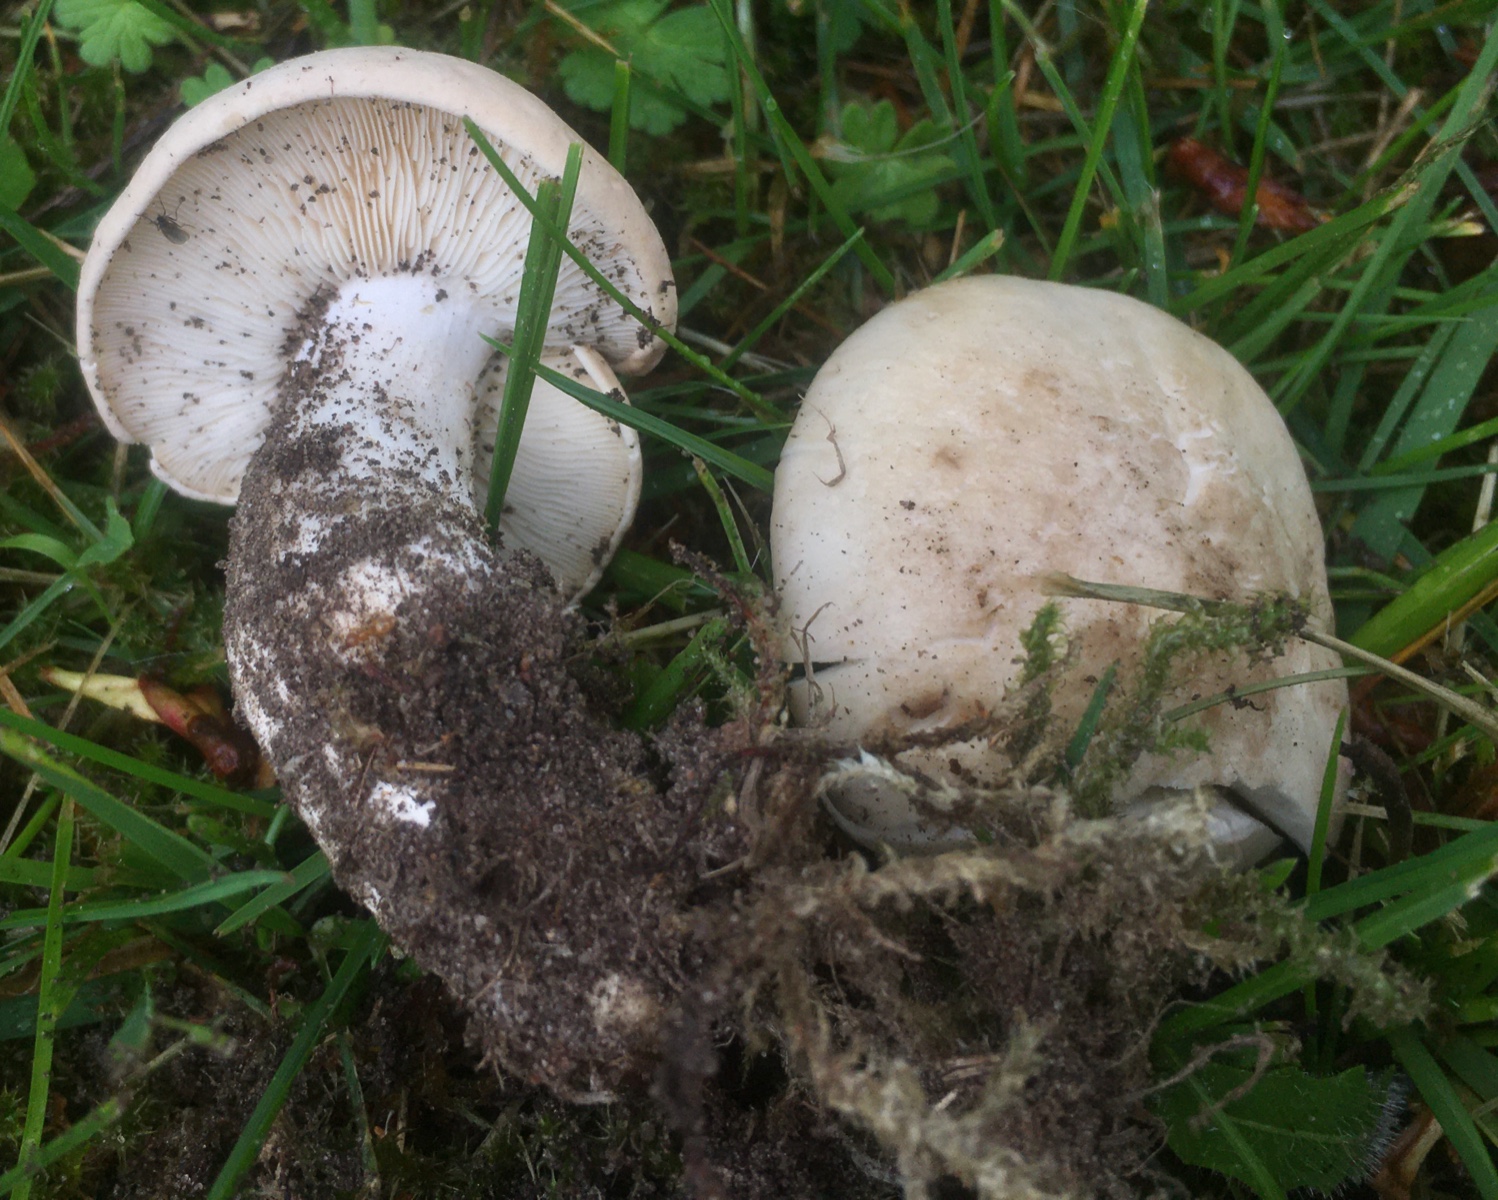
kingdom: Fungi
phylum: Basidiomycota
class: Agaricomycetes
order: Agaricales
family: Lyophyllaceae
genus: Calocybe
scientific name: Calocybe gambosa
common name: vårmusseron
